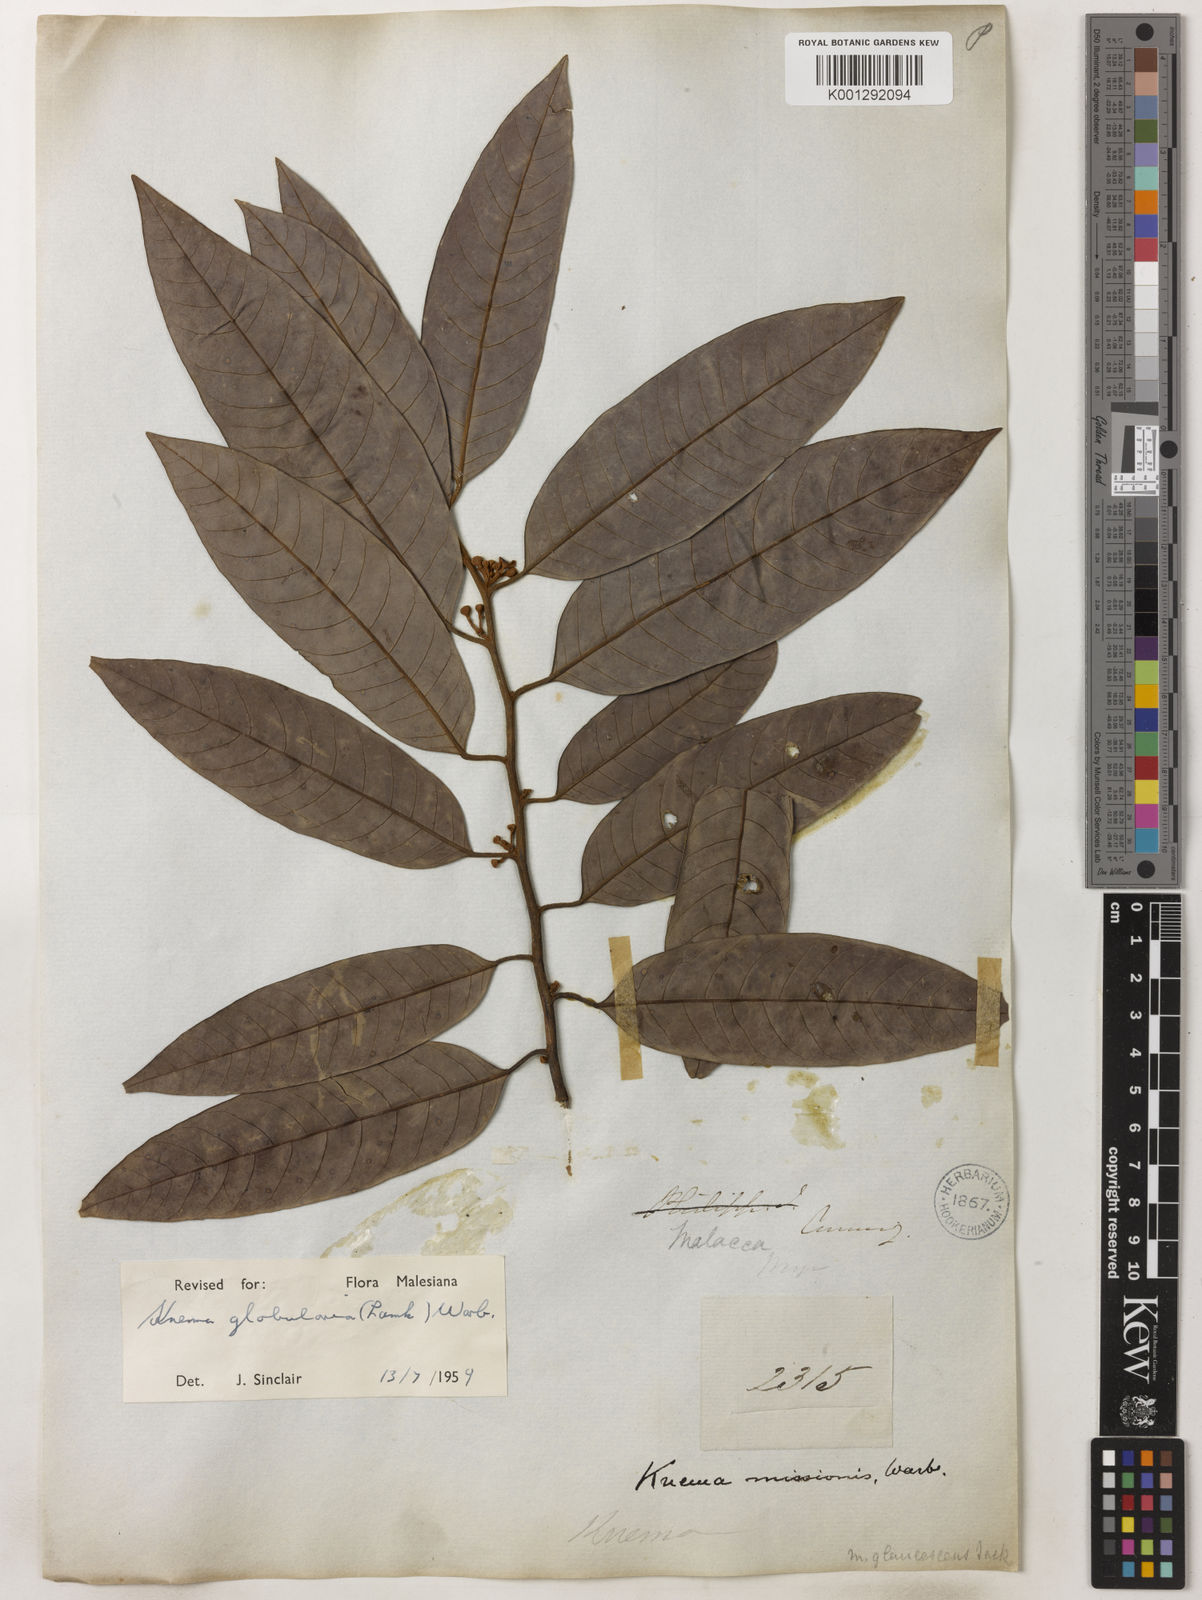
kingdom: Plantae
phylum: Tracheophyta
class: Magnoliopsida
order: Magnoliales
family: Myristicaceae
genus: Knema
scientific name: Knema globularia
